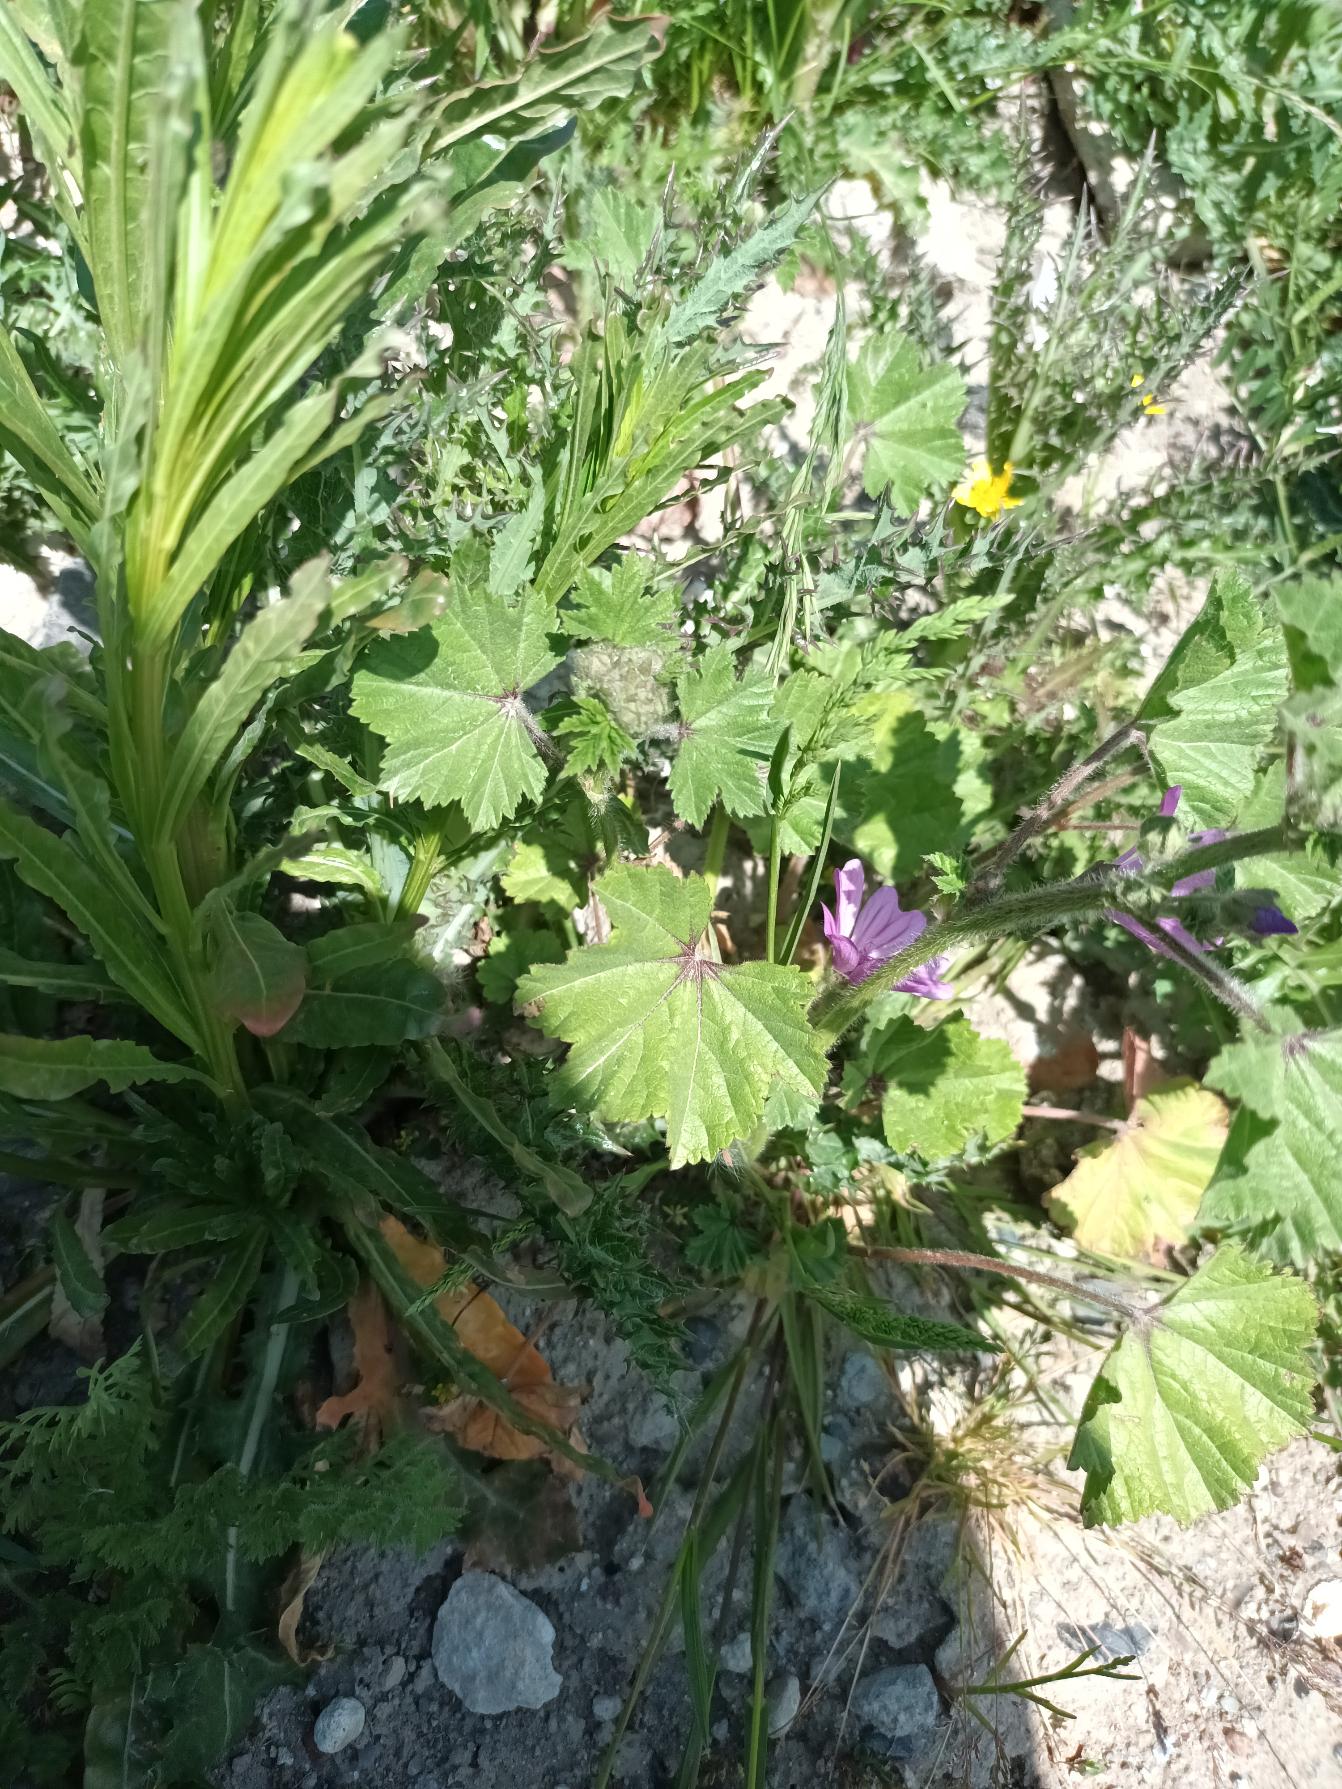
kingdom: Plantae
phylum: Tracheophyta
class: Magnoliopsida
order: Malvales
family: Malvaceae
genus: Malva
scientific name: Malva sylvestris
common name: Almindelig katost
